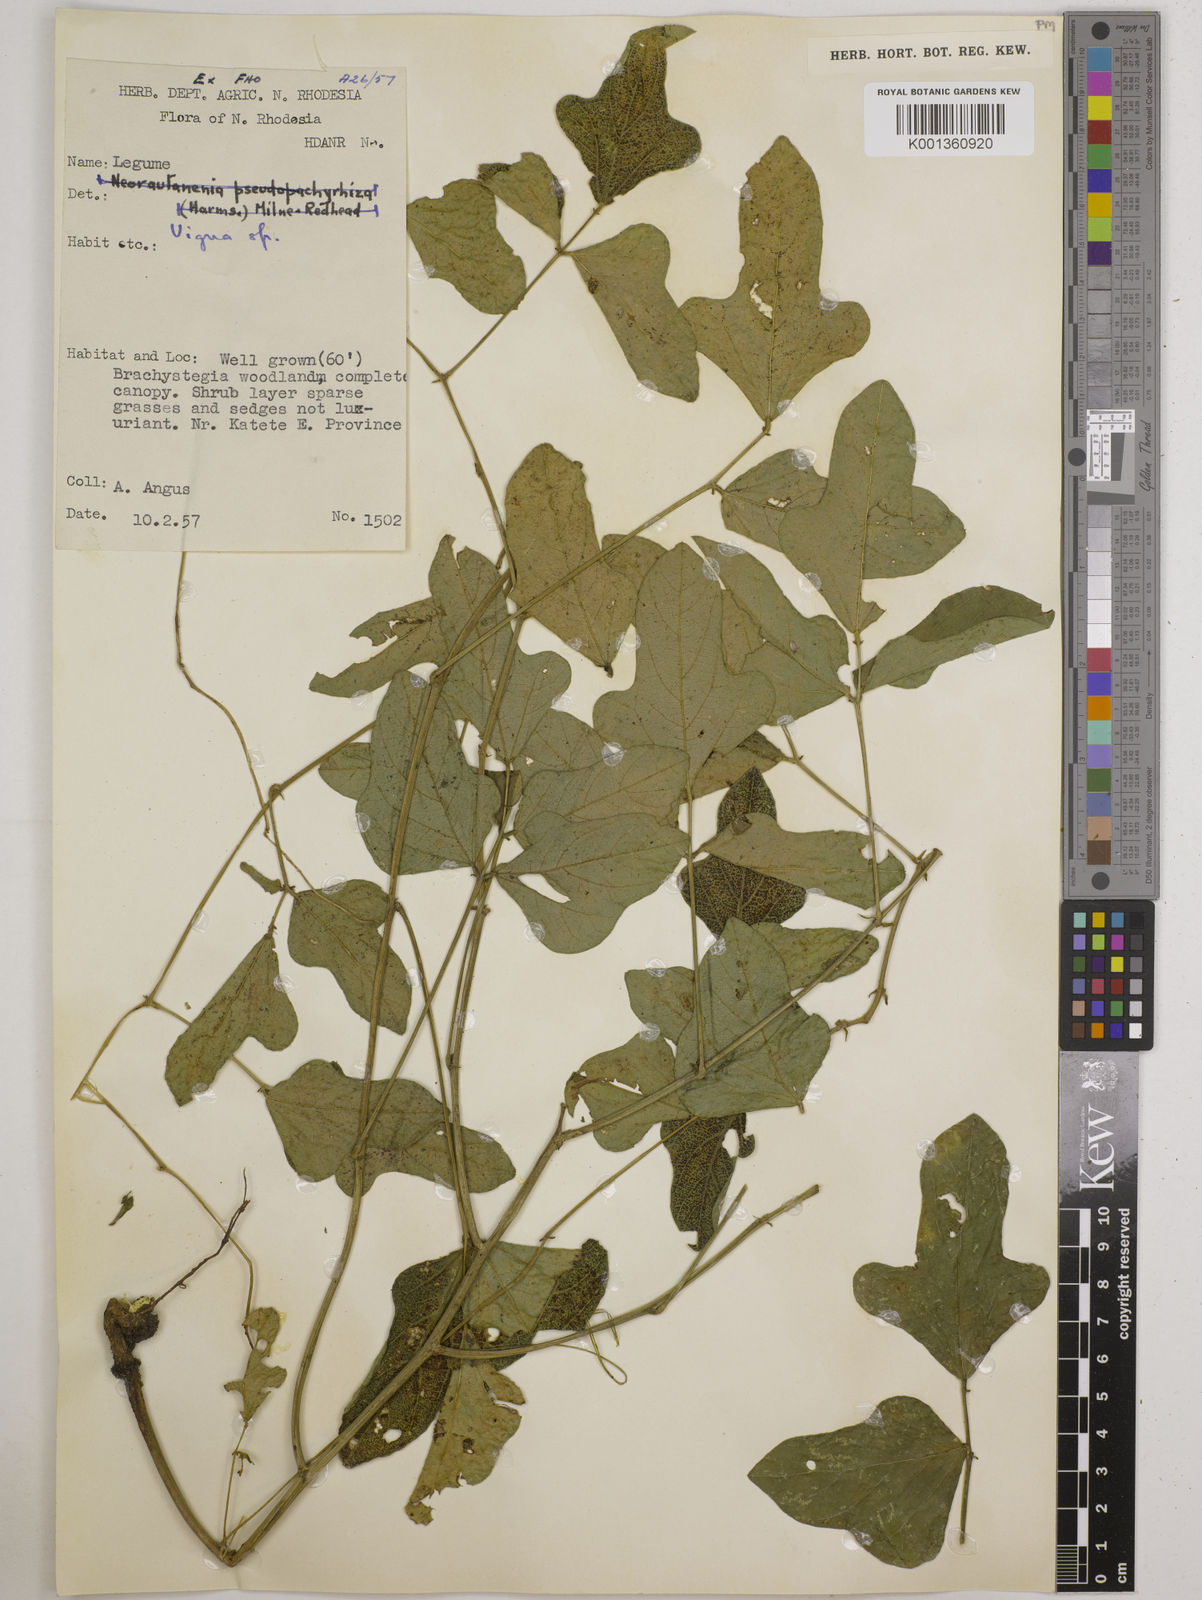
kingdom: Plantae
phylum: Tracheophyta
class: Magnoliopsida
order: Fabales
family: Fabaceae
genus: Vigna
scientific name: Vigna frutescens
